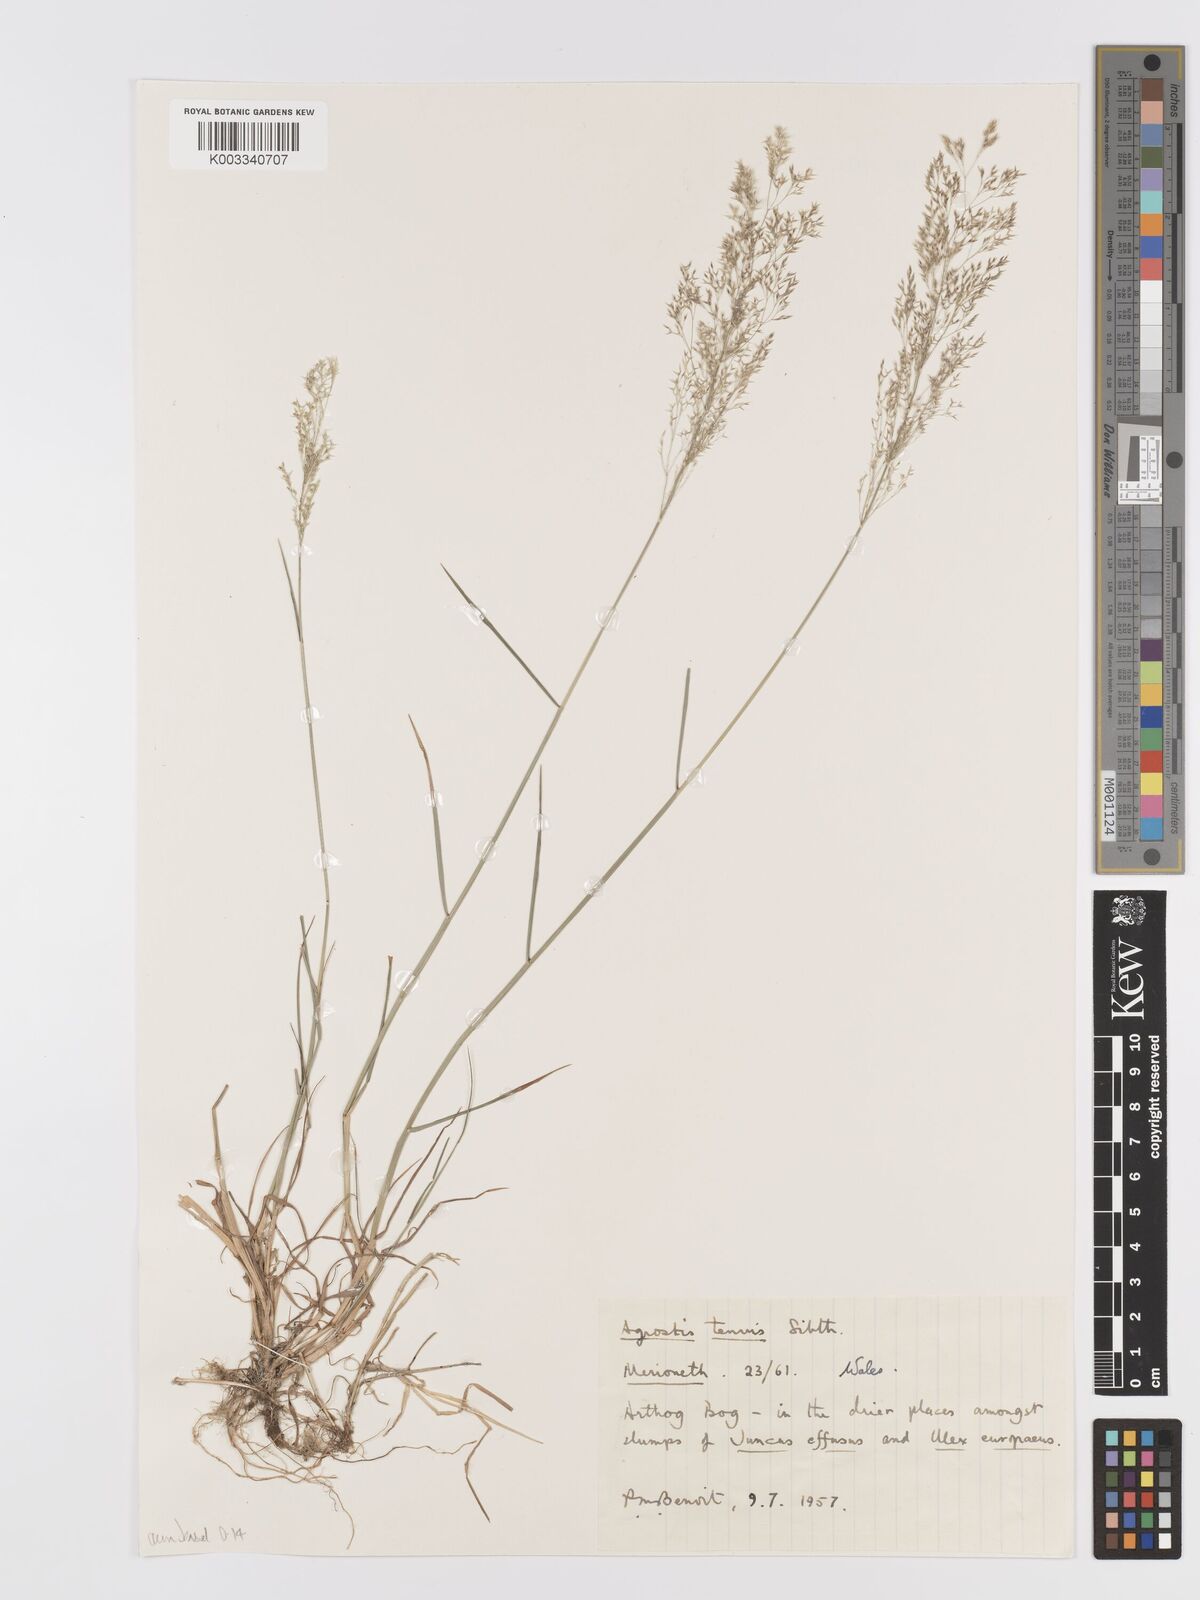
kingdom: Plantae
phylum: Tracheophyta
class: Liliopsida
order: Poales
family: Poaceae
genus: Agrostis
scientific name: Agrostis capillaris
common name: Colonial bentgrass
